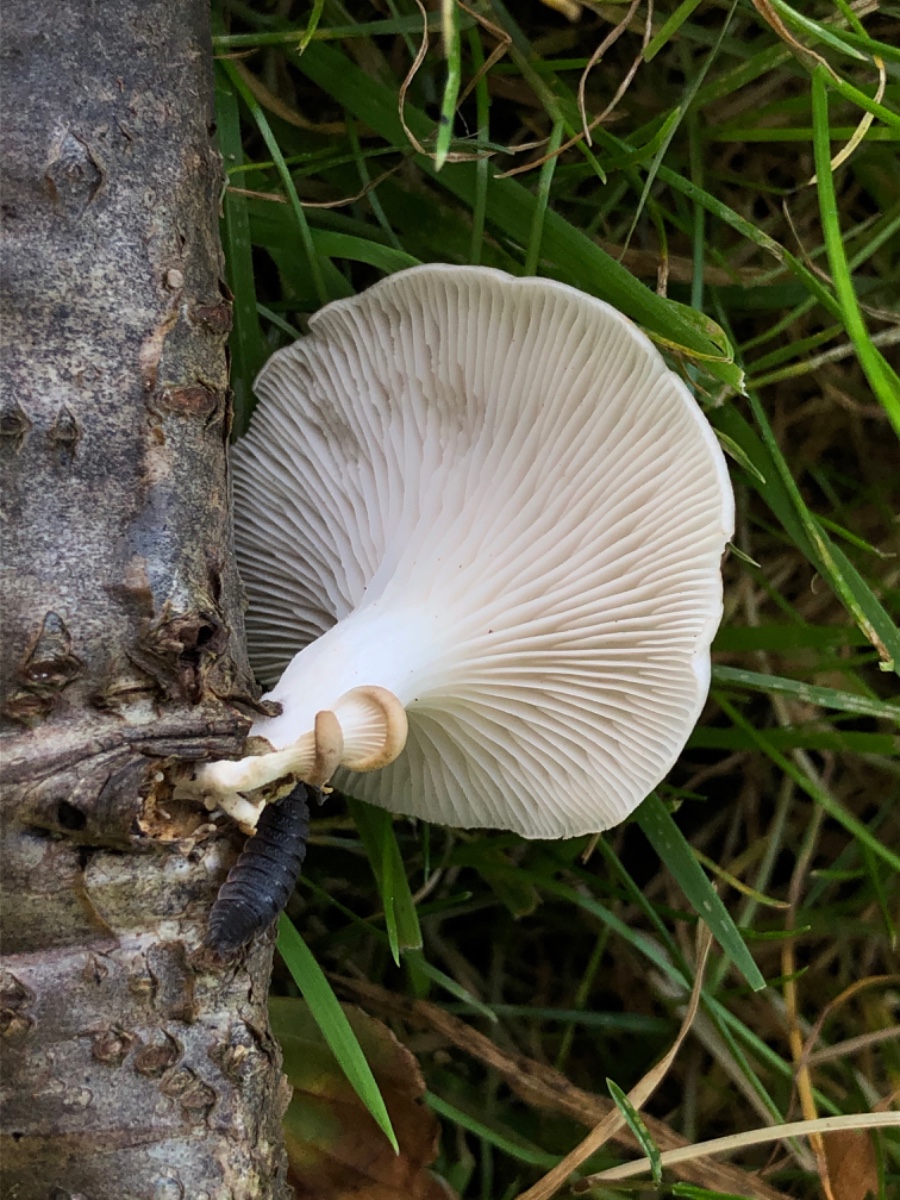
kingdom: Fungi
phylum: Basidiomycota
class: Agaricomycetes
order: Agaricales
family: Pleurotaceae
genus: Pleurotus
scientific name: Pleurotus ostreatus
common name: Oyster mushroom
